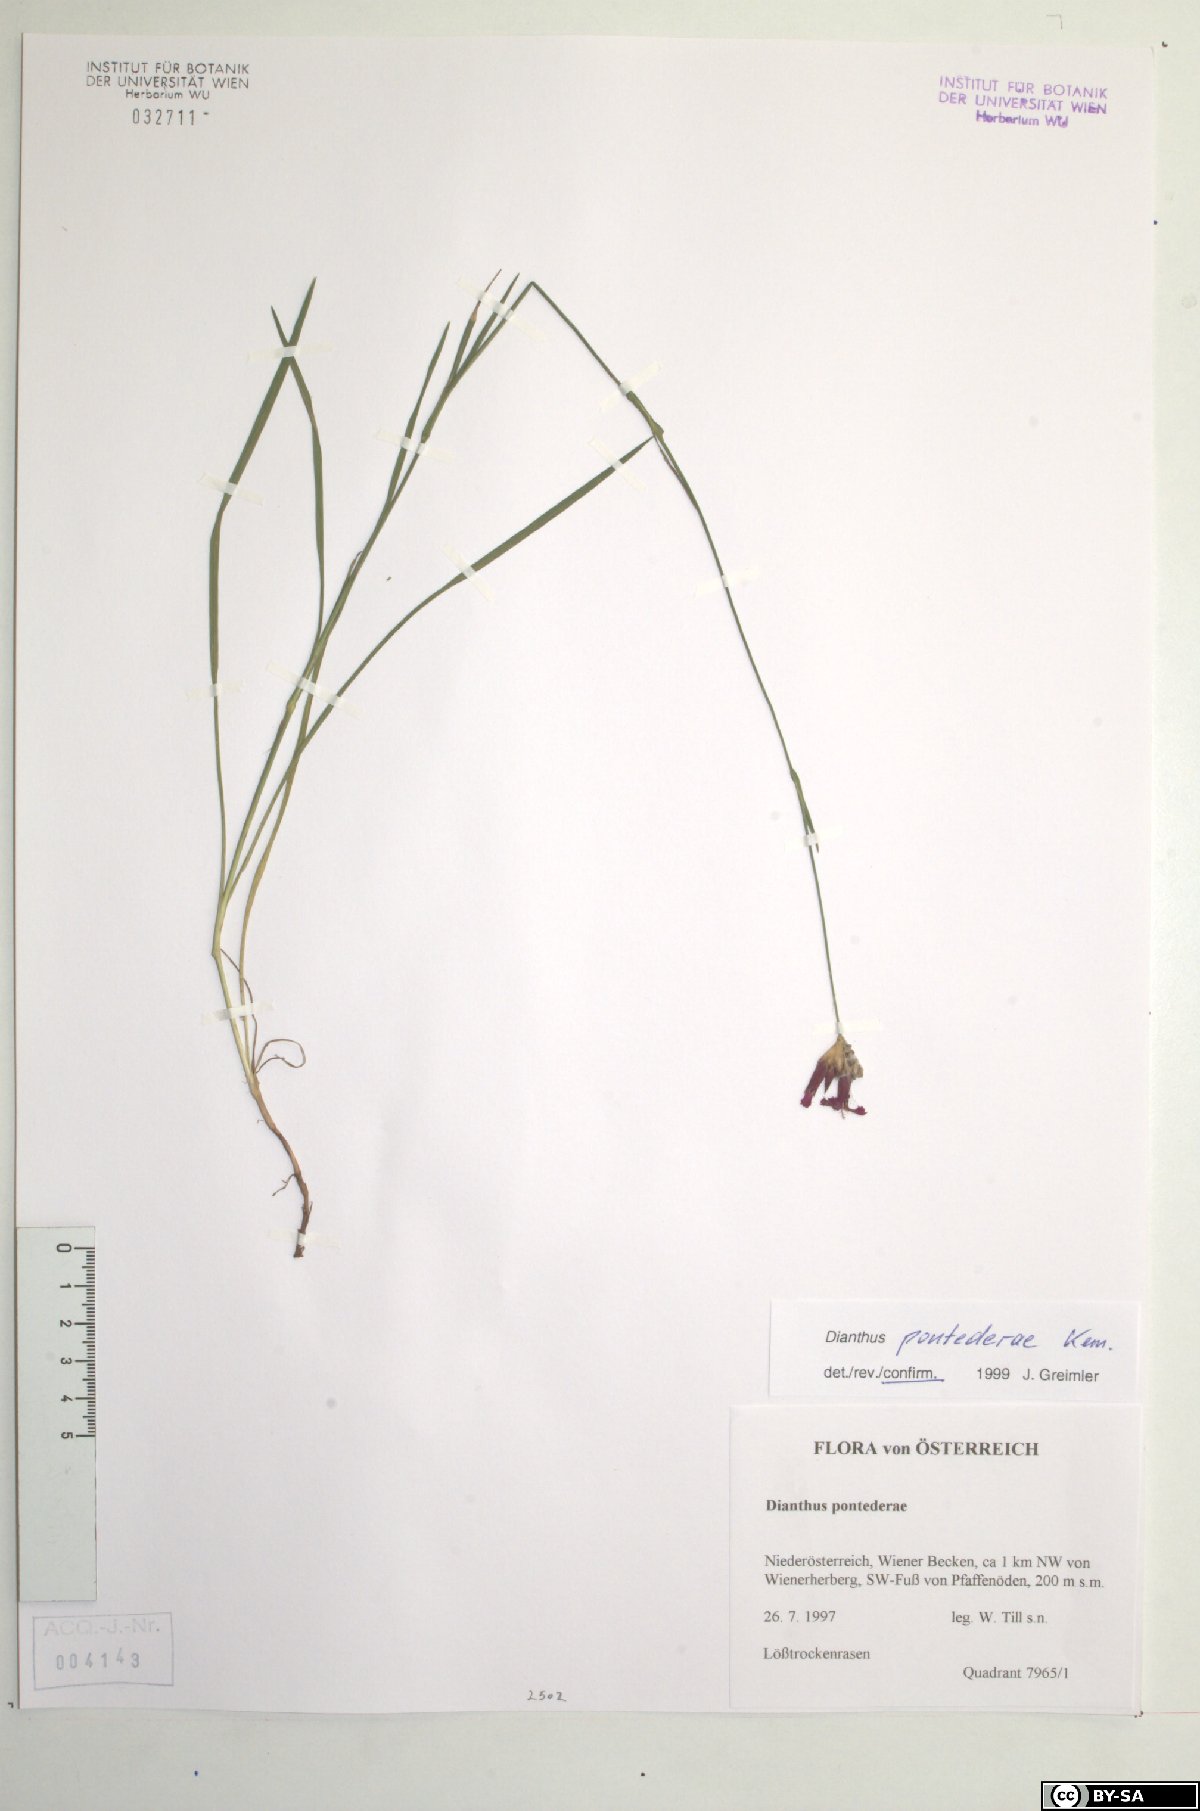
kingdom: Plantae
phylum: Tracheophyta
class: Magnoliopsida
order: Caryophyllales
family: Caryophyllaceae
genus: Dianthus
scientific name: Dianthus pontederae
